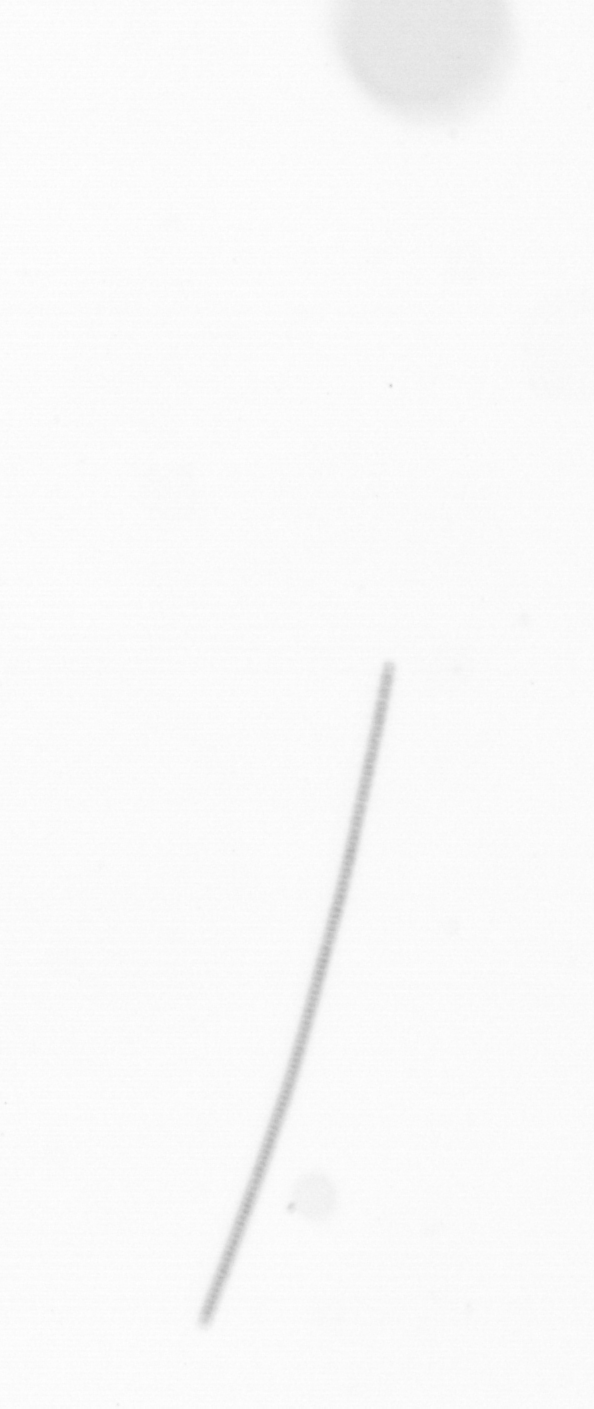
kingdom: Chromista
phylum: Ochrophyta
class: Bacillariophyceae
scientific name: Bacillariophyceae
